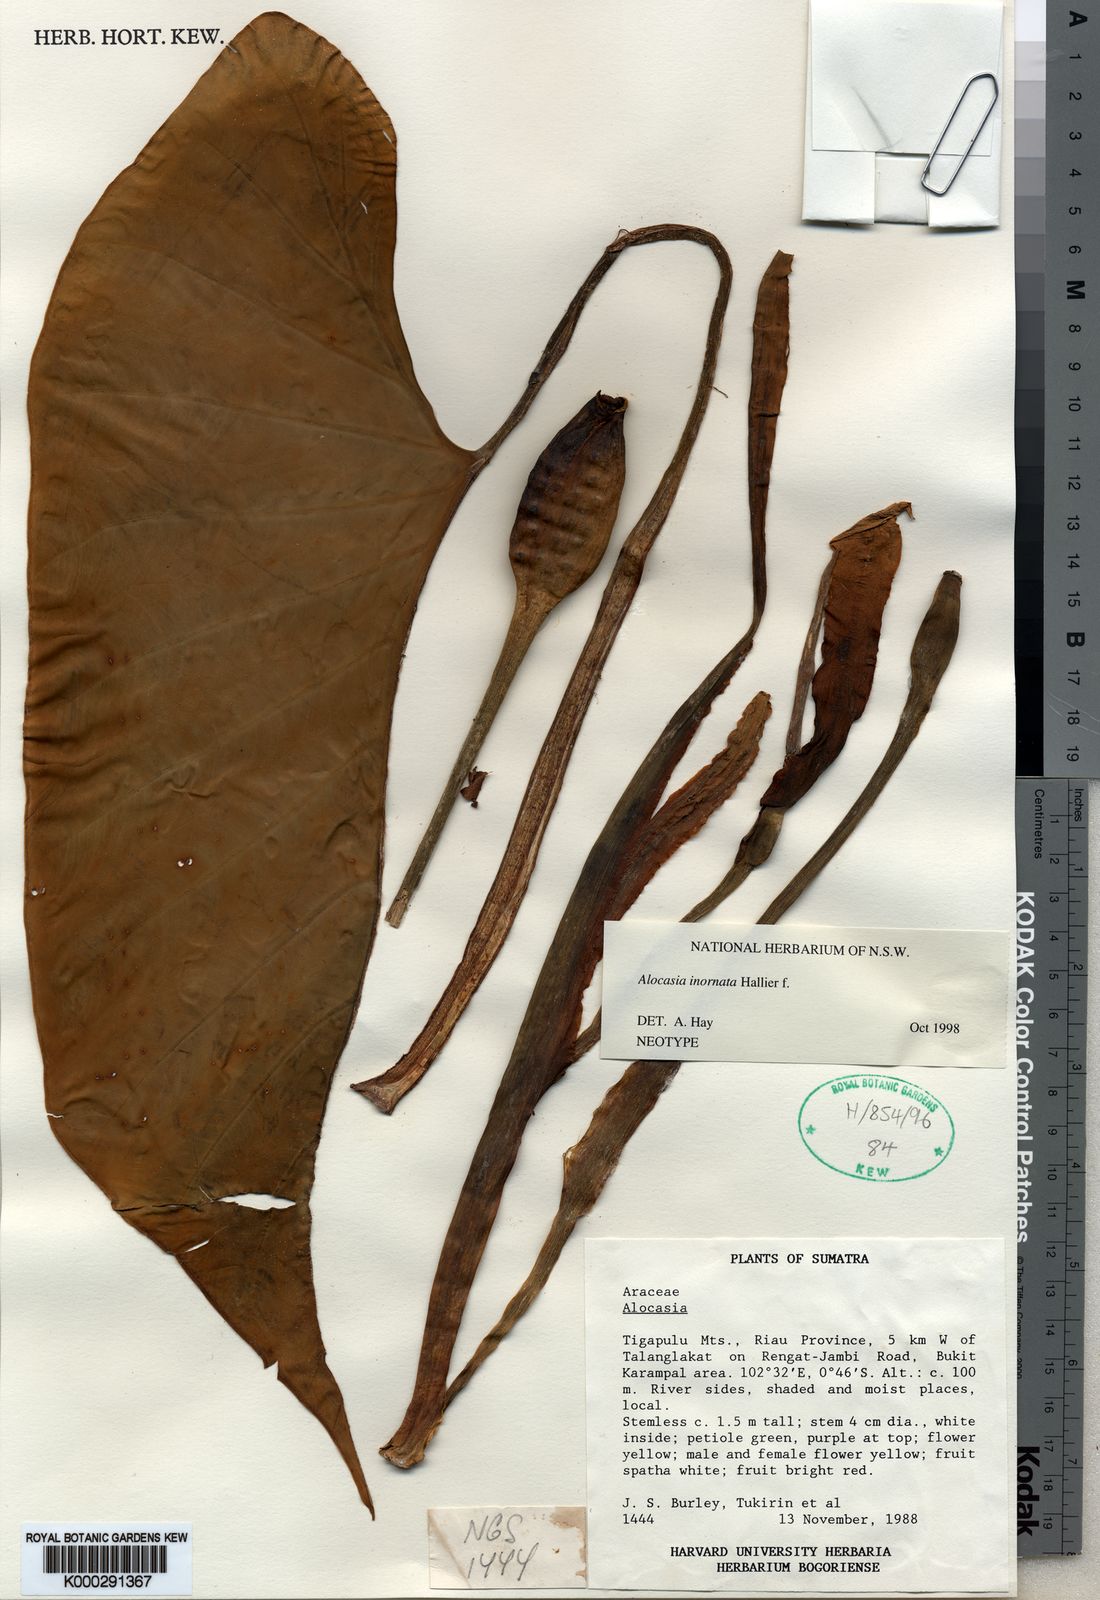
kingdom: Plantae
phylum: Tracheophyta
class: Liliopsida
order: Alismatales
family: Araceae
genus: Alocasia
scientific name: Alocasia inornata
